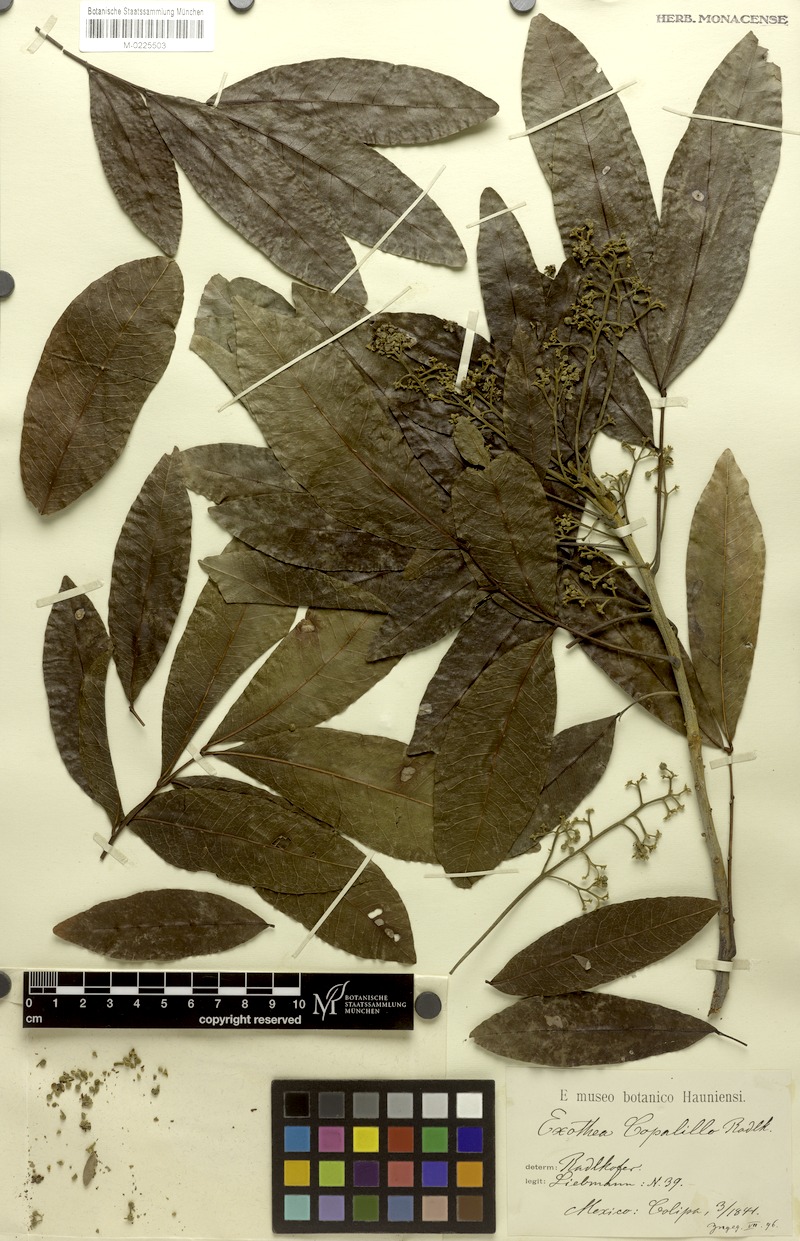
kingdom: Plantae
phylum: Tracheophyta
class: Magnoliopsida
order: Sapindales
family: Sapindaceae
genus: Exothea
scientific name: Exothea copalillo
